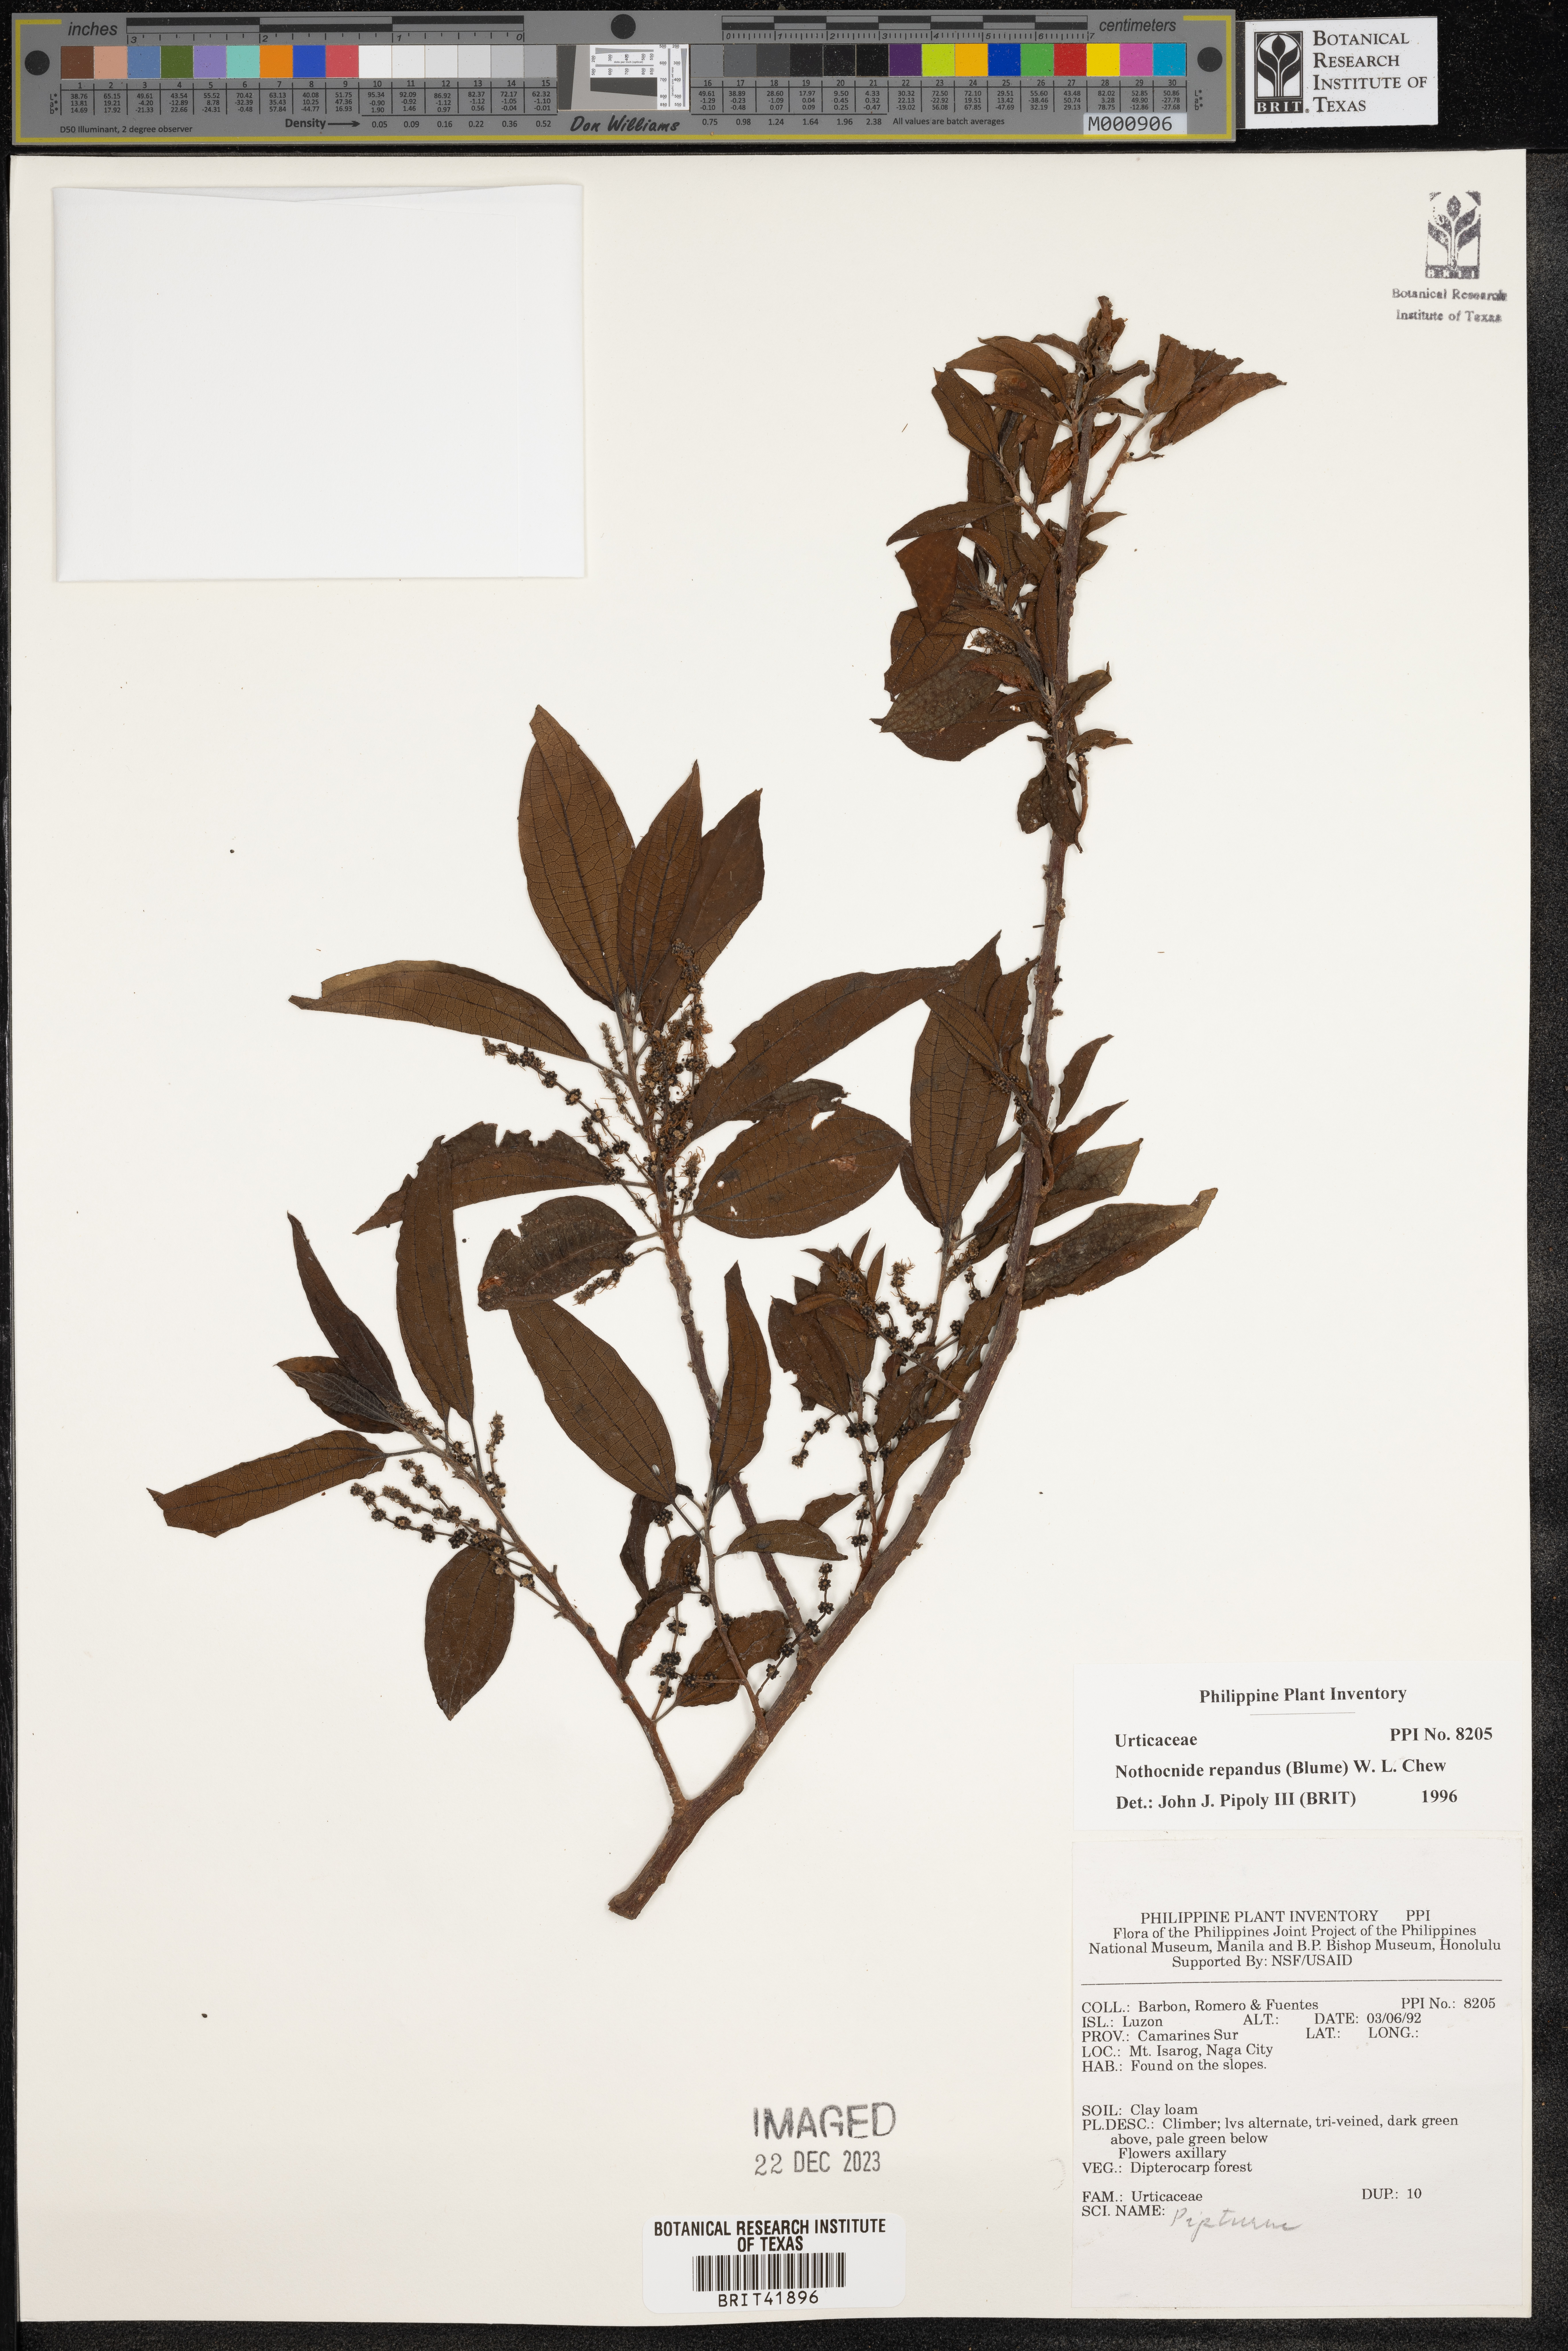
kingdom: Plantae
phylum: Tracheophyta
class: Magnoliopsida
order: Rosales
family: Urticaceae
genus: Nothocnide
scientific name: Nothocnide repanda
